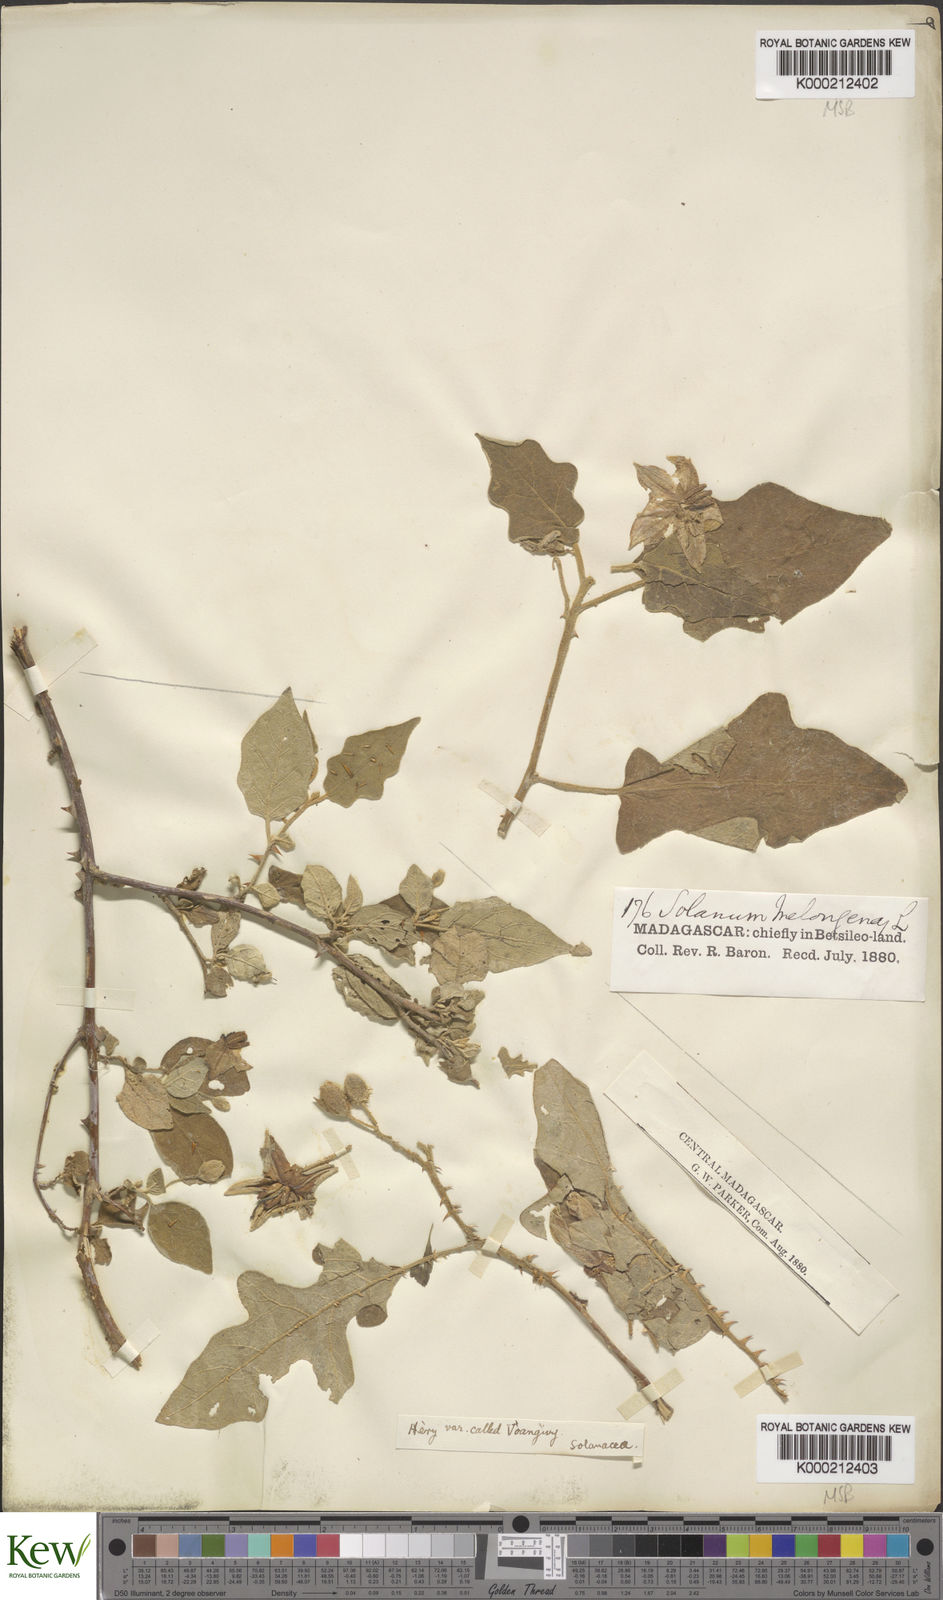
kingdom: Plantae
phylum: Tracheophyta
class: Magnoliopsida
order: Solanales
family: Solanaceae
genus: Solanum
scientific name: Solanum richardii
